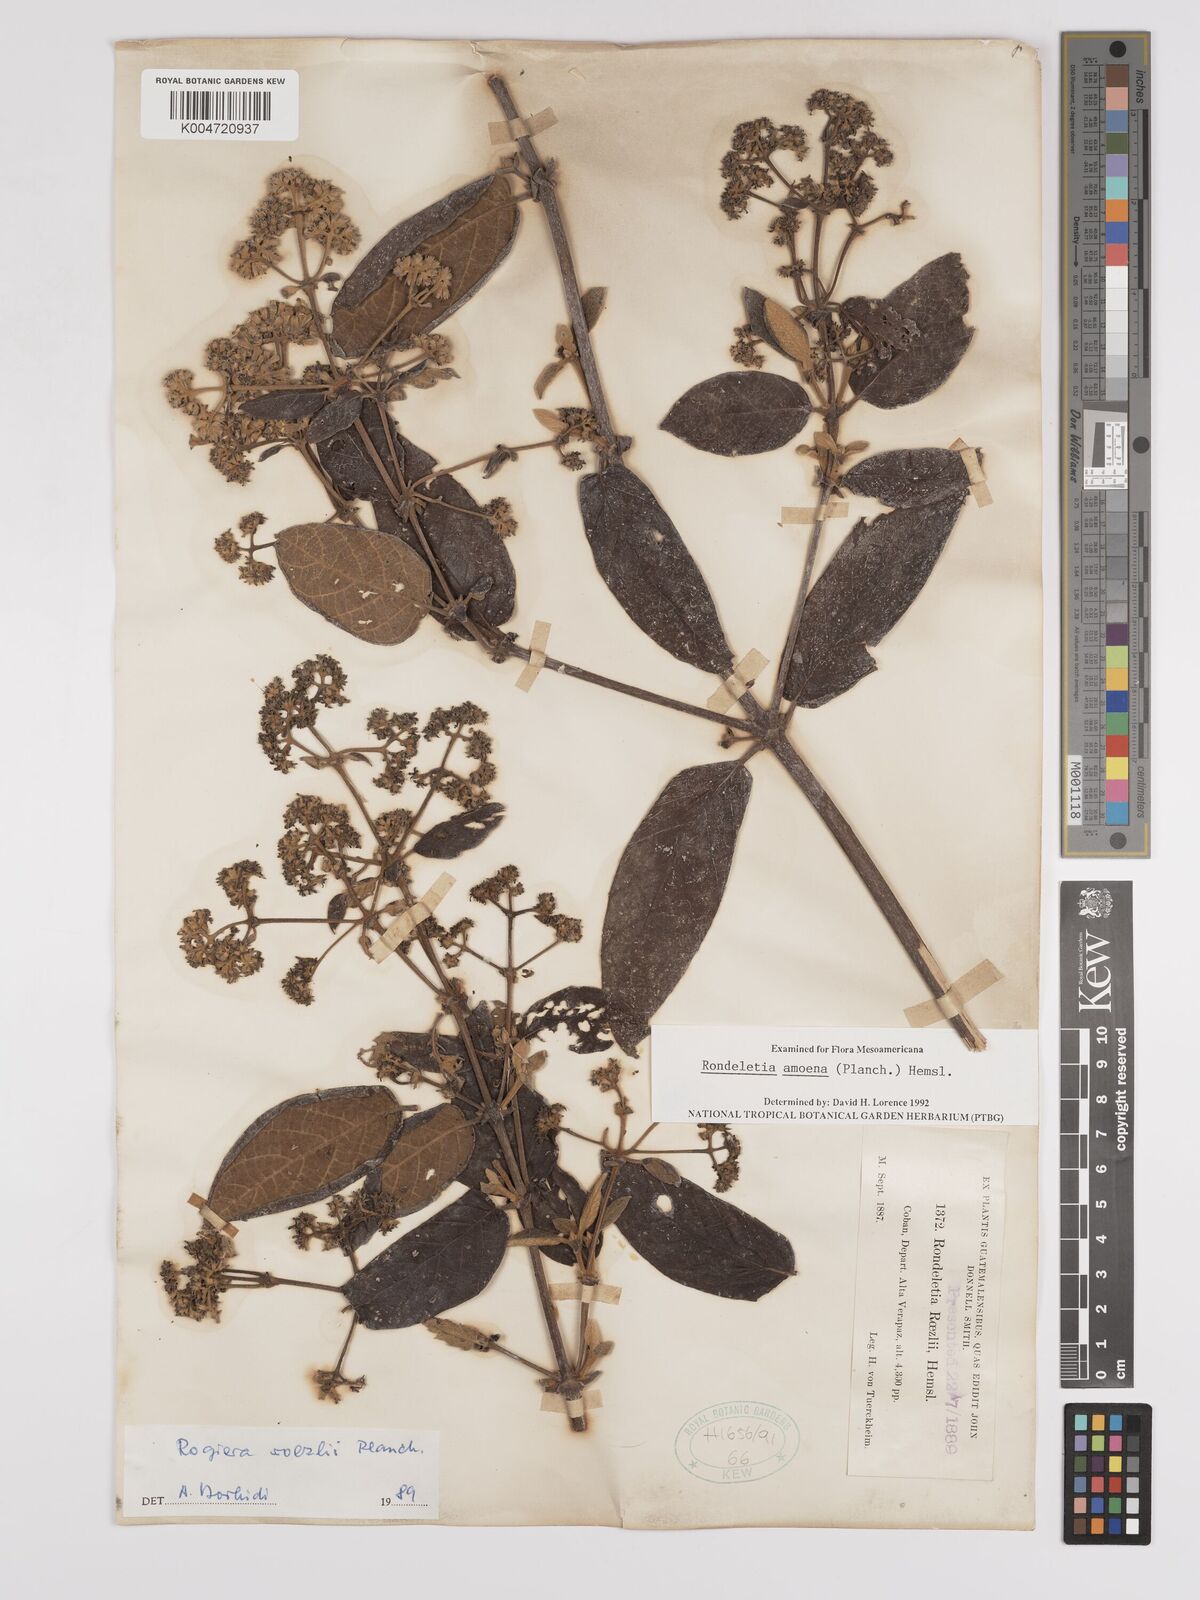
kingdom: Plantae
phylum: Tracheophyta
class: Magnoliopsida
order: Gentianales
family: Rubiaceae
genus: Rogiera
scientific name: Rogiera amoena
